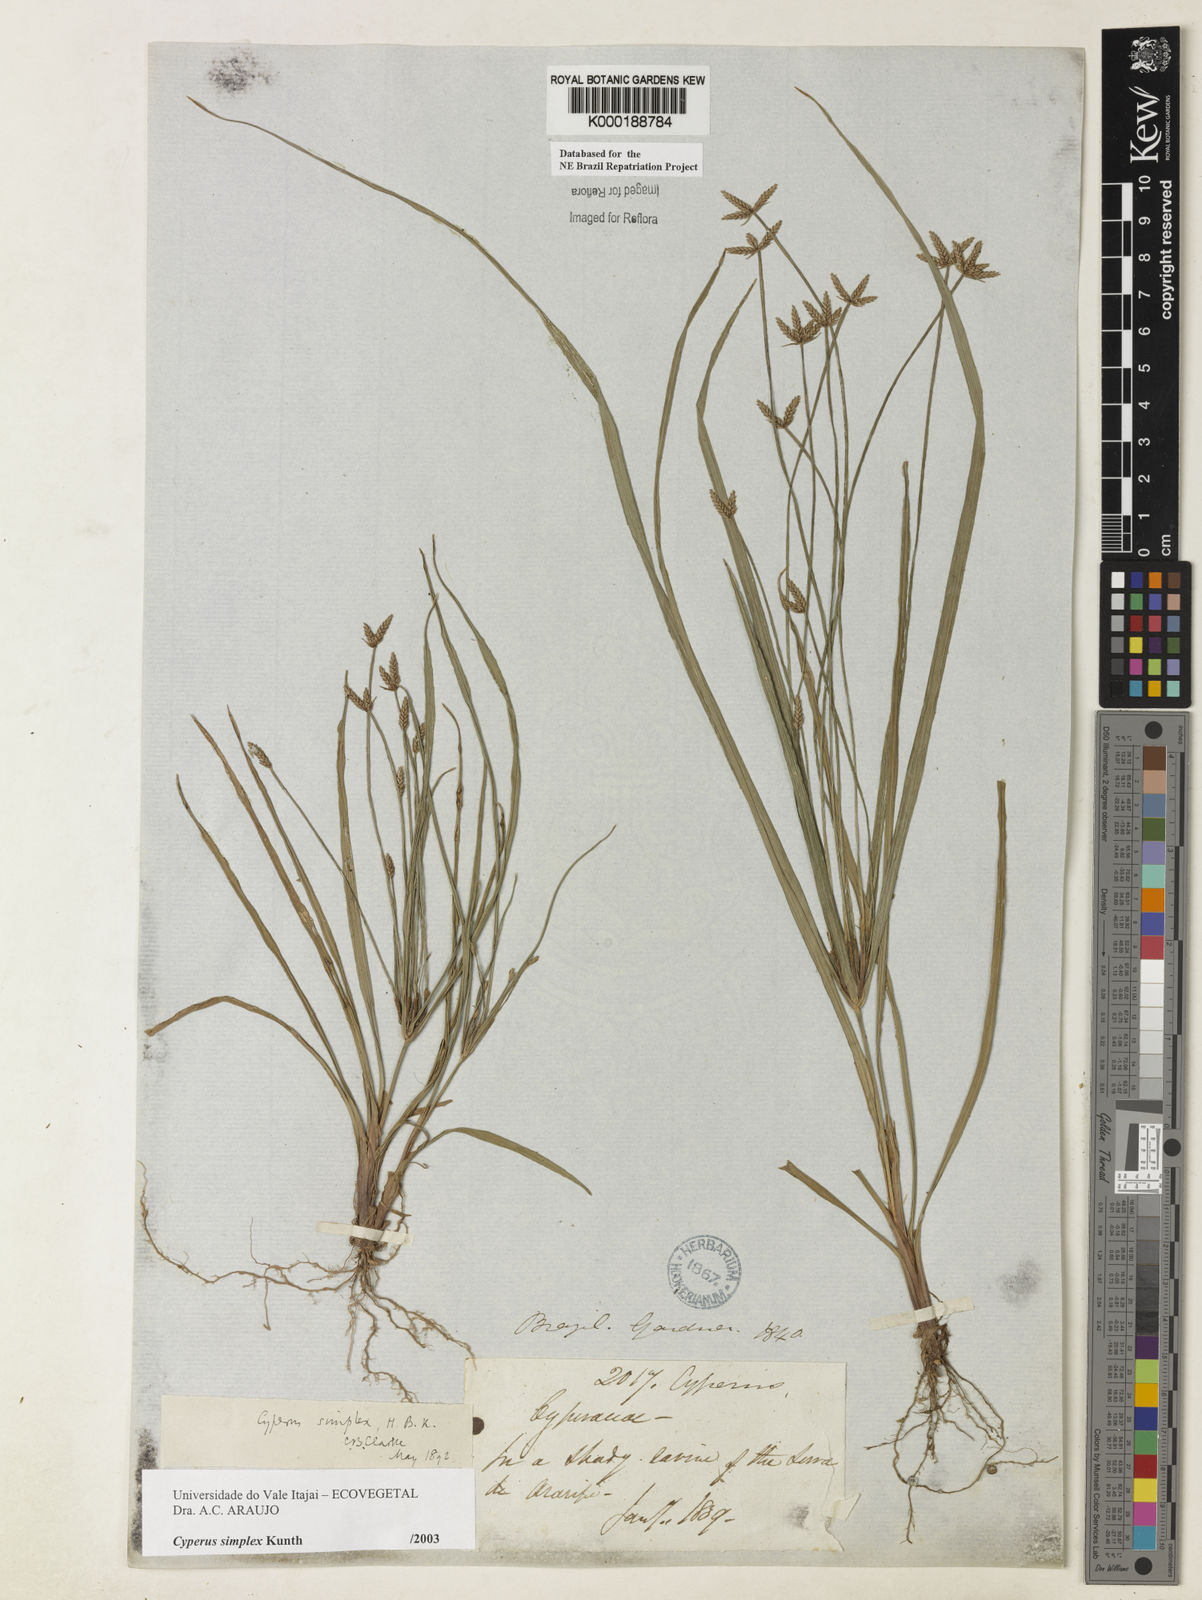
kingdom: Plantae
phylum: Tracheophyta
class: Liliopsida
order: Poales
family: Cyperaceae
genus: Cyperus
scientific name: Cyperus simplex
